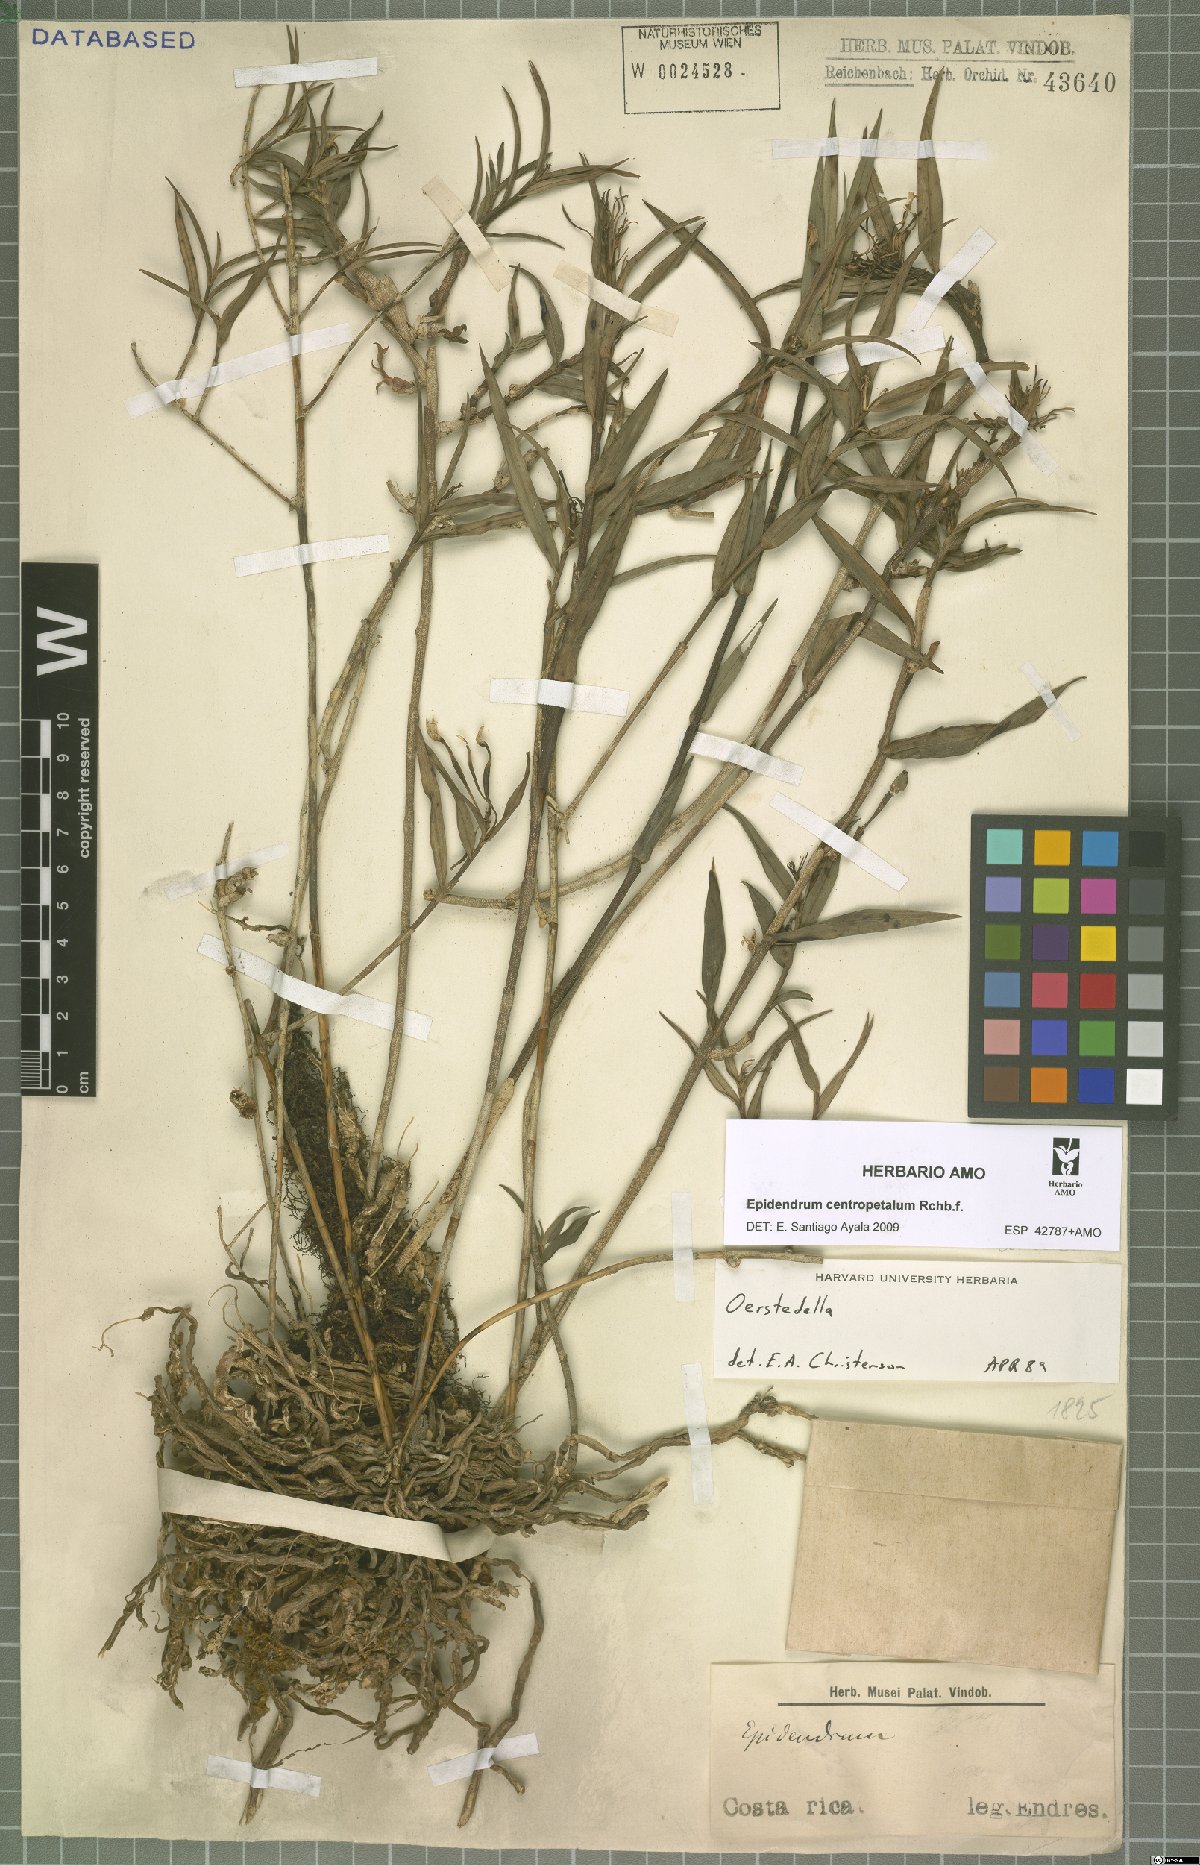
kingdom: Plantae
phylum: Tracheophyta
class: Liliopsida
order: Asparagales
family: Orchidaceae
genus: Epidendrum
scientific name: Epidendrum centropetalum
